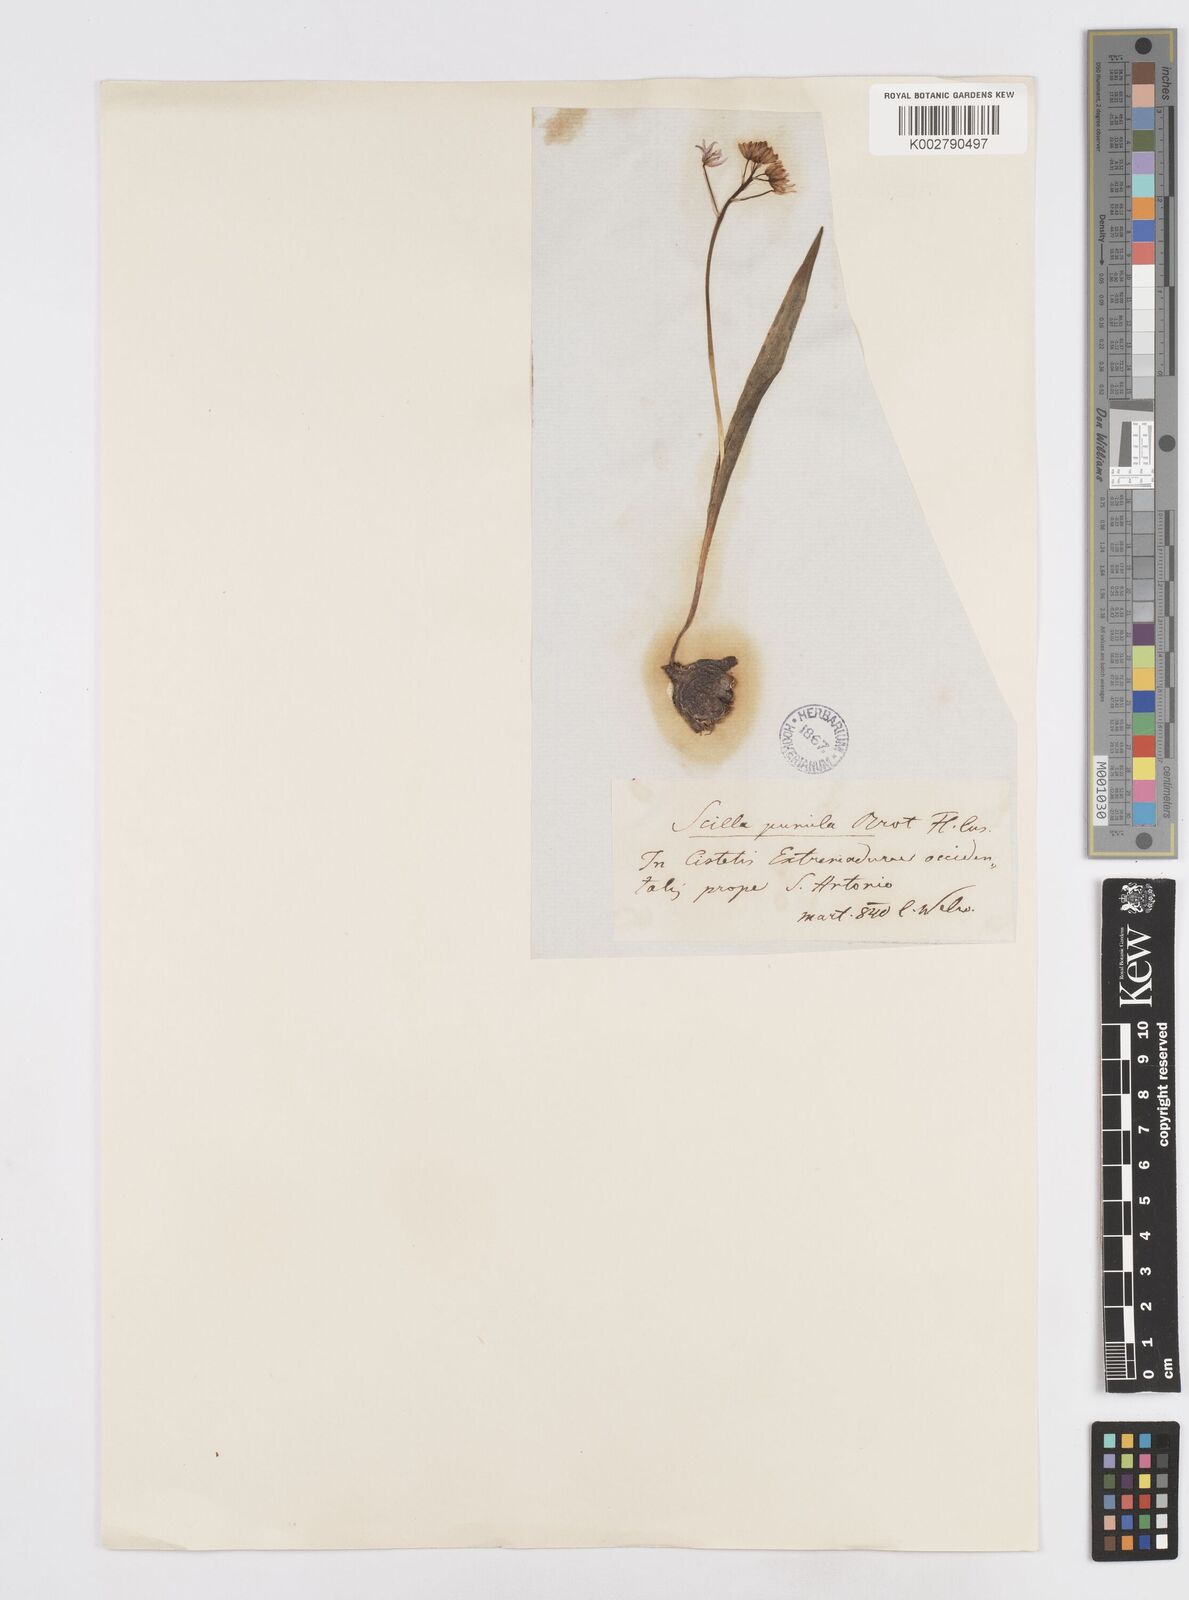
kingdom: Plantae
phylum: Tracheophyta
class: Liliopsida
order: Asparagales
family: Asparagaceae
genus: Scilla
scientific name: Scilla monophyllos
